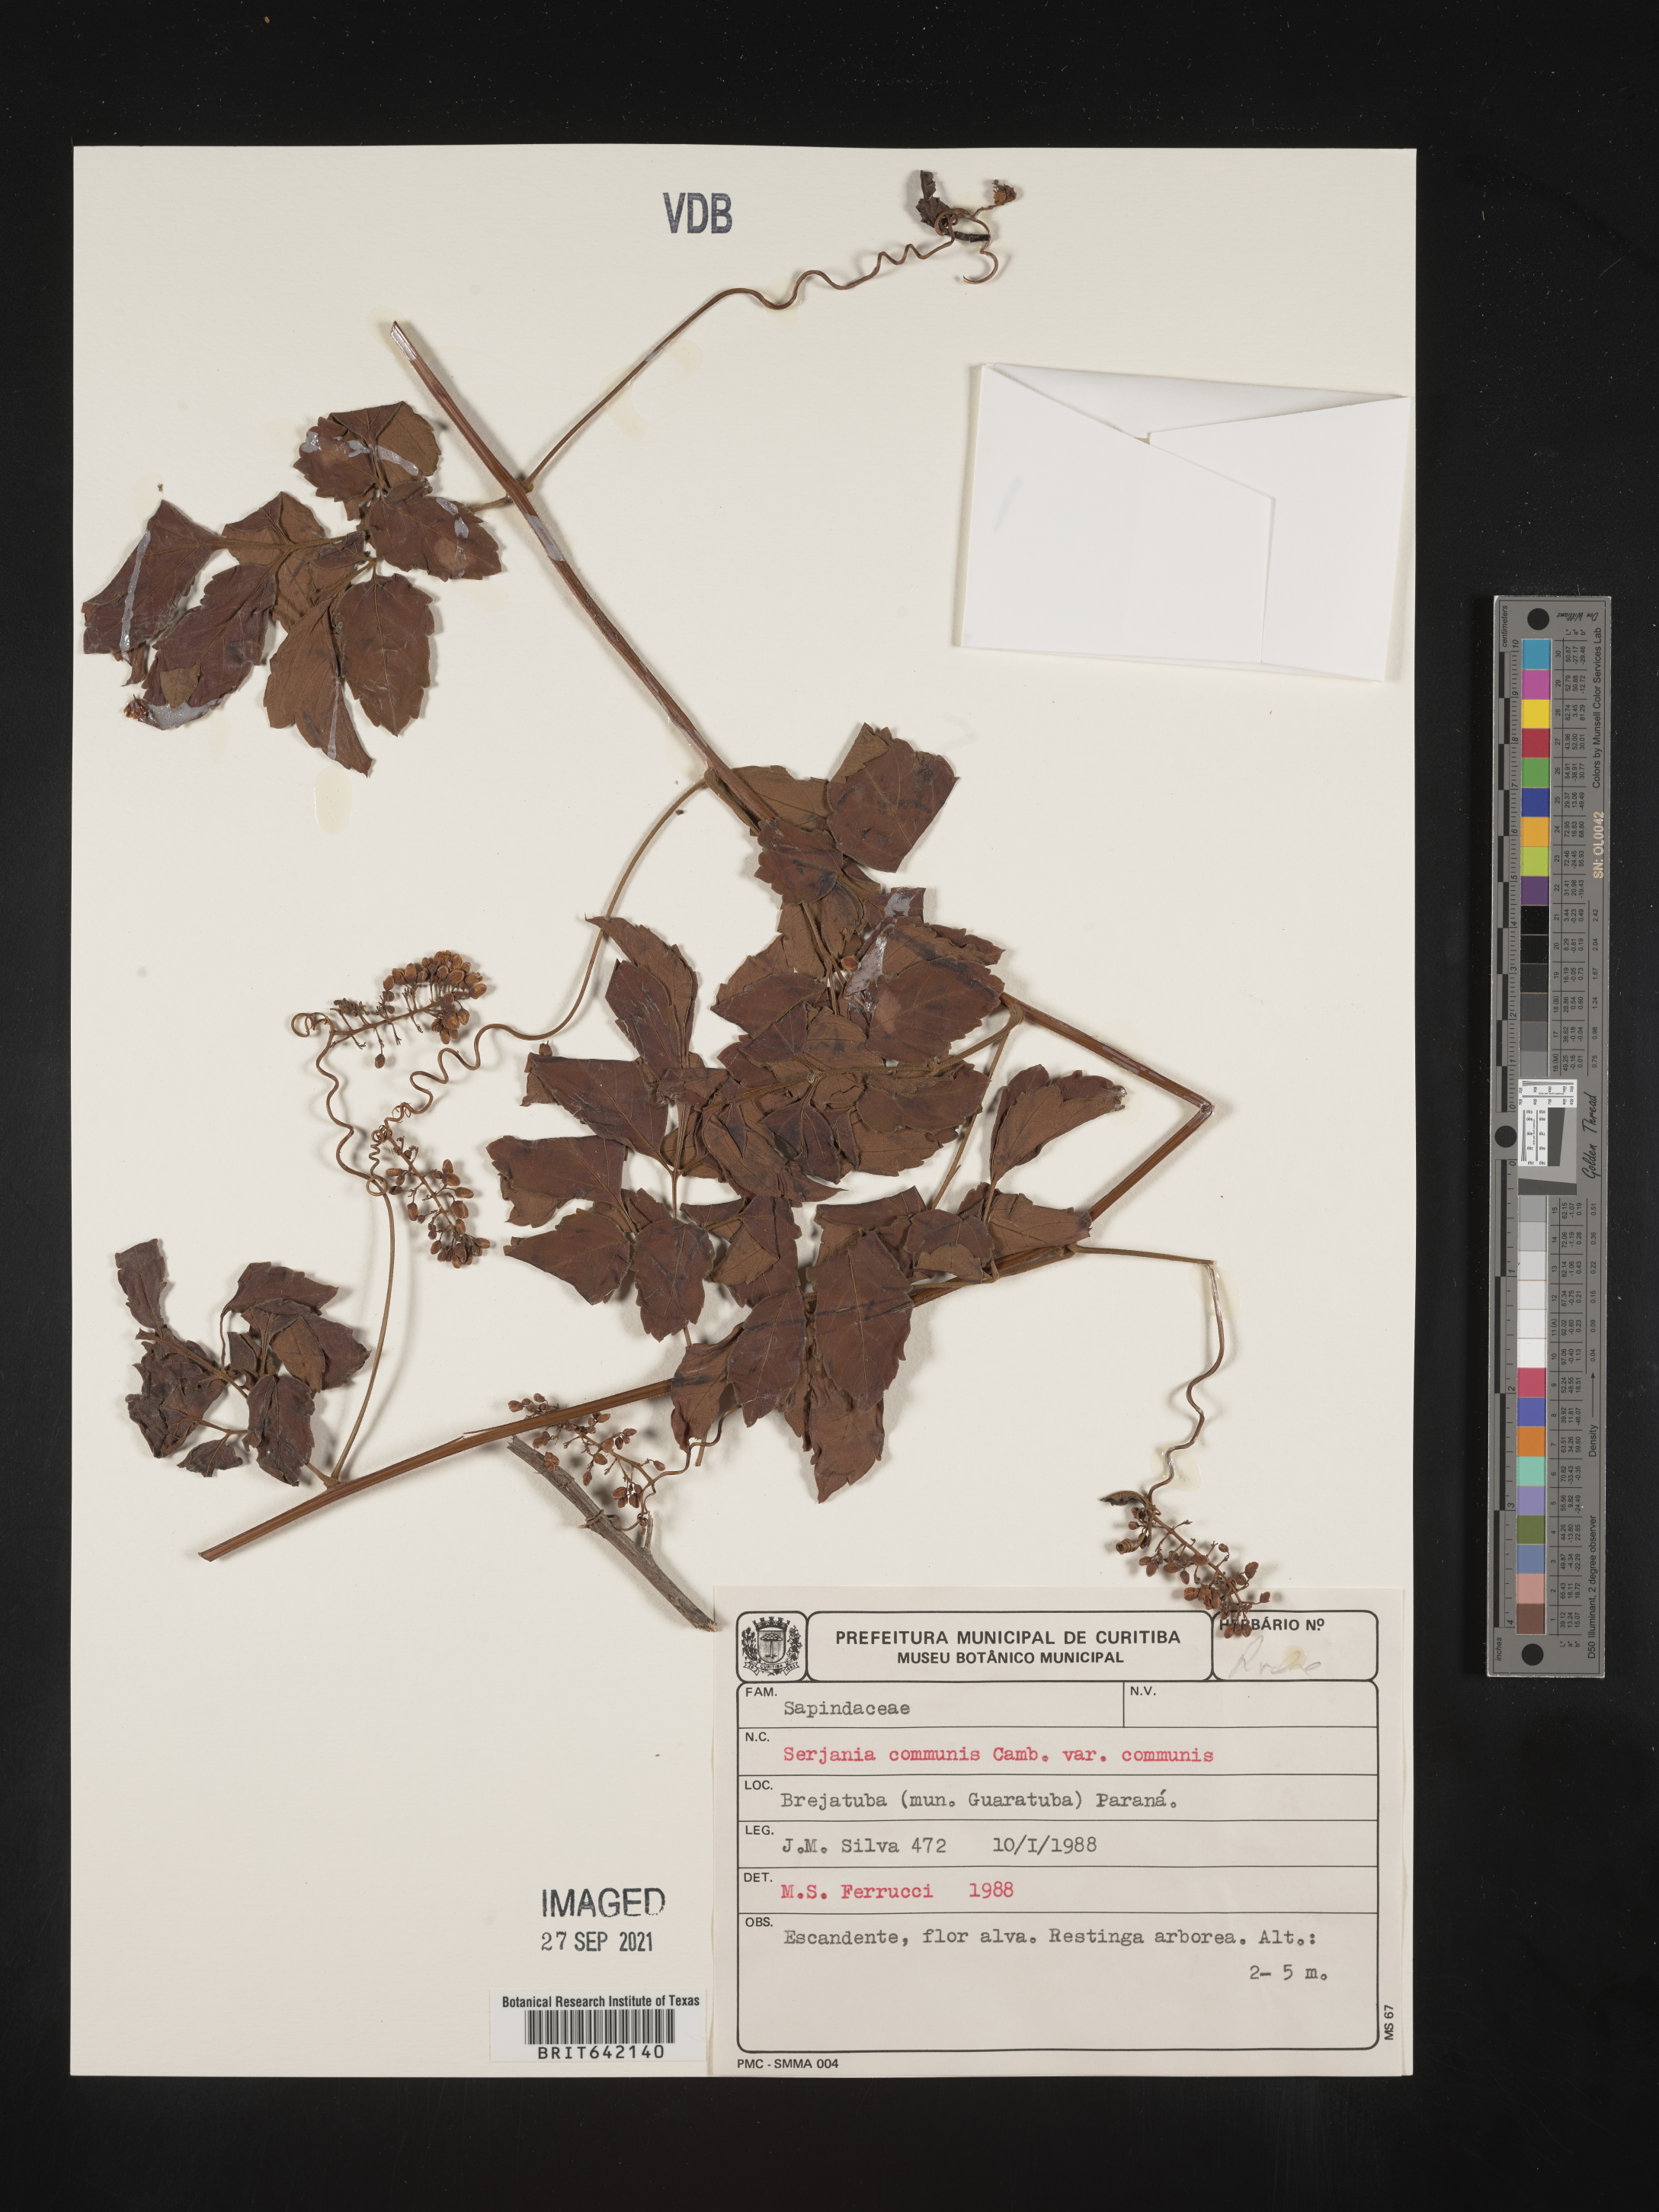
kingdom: Plantae
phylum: Tracheophyta
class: Magnoliopsida
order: Sapindales
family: Sapindaceae
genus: Serjania
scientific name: Serjania
